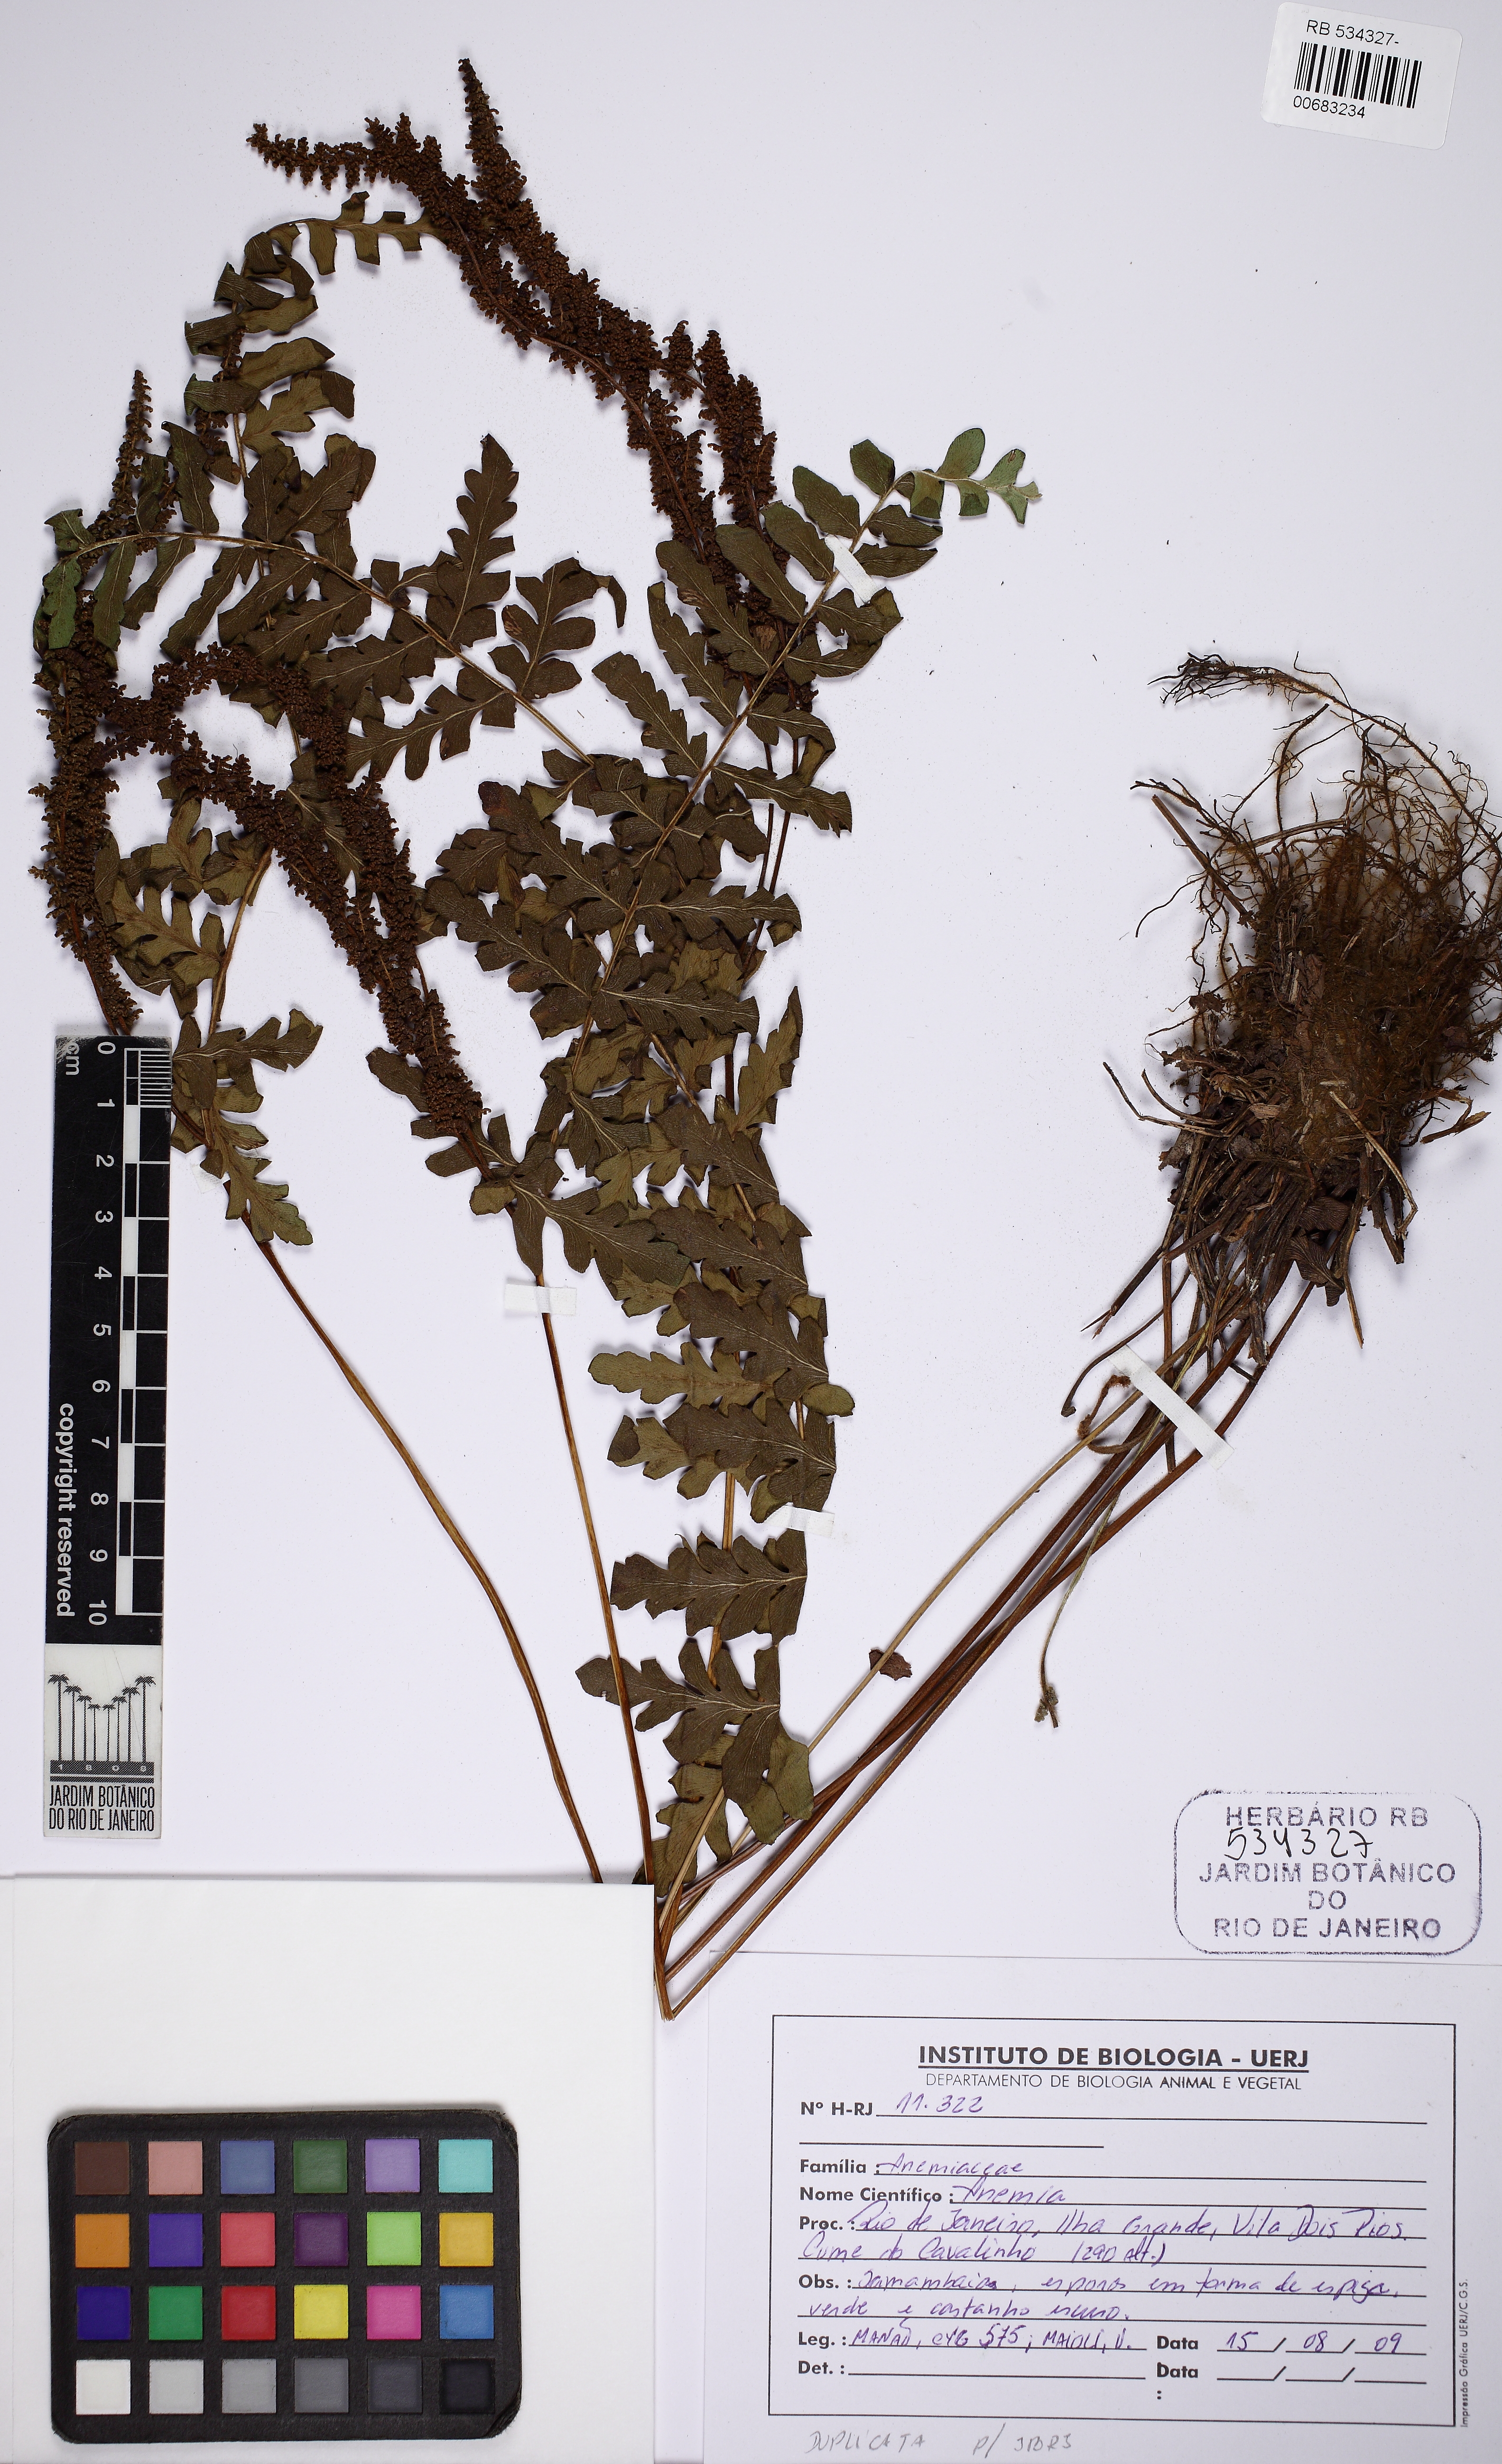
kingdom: Plantae
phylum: Tracheophyta
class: Polypodiopsida
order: Schizaeales
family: Anemiaceae
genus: Anemia
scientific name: Anemia villosa
